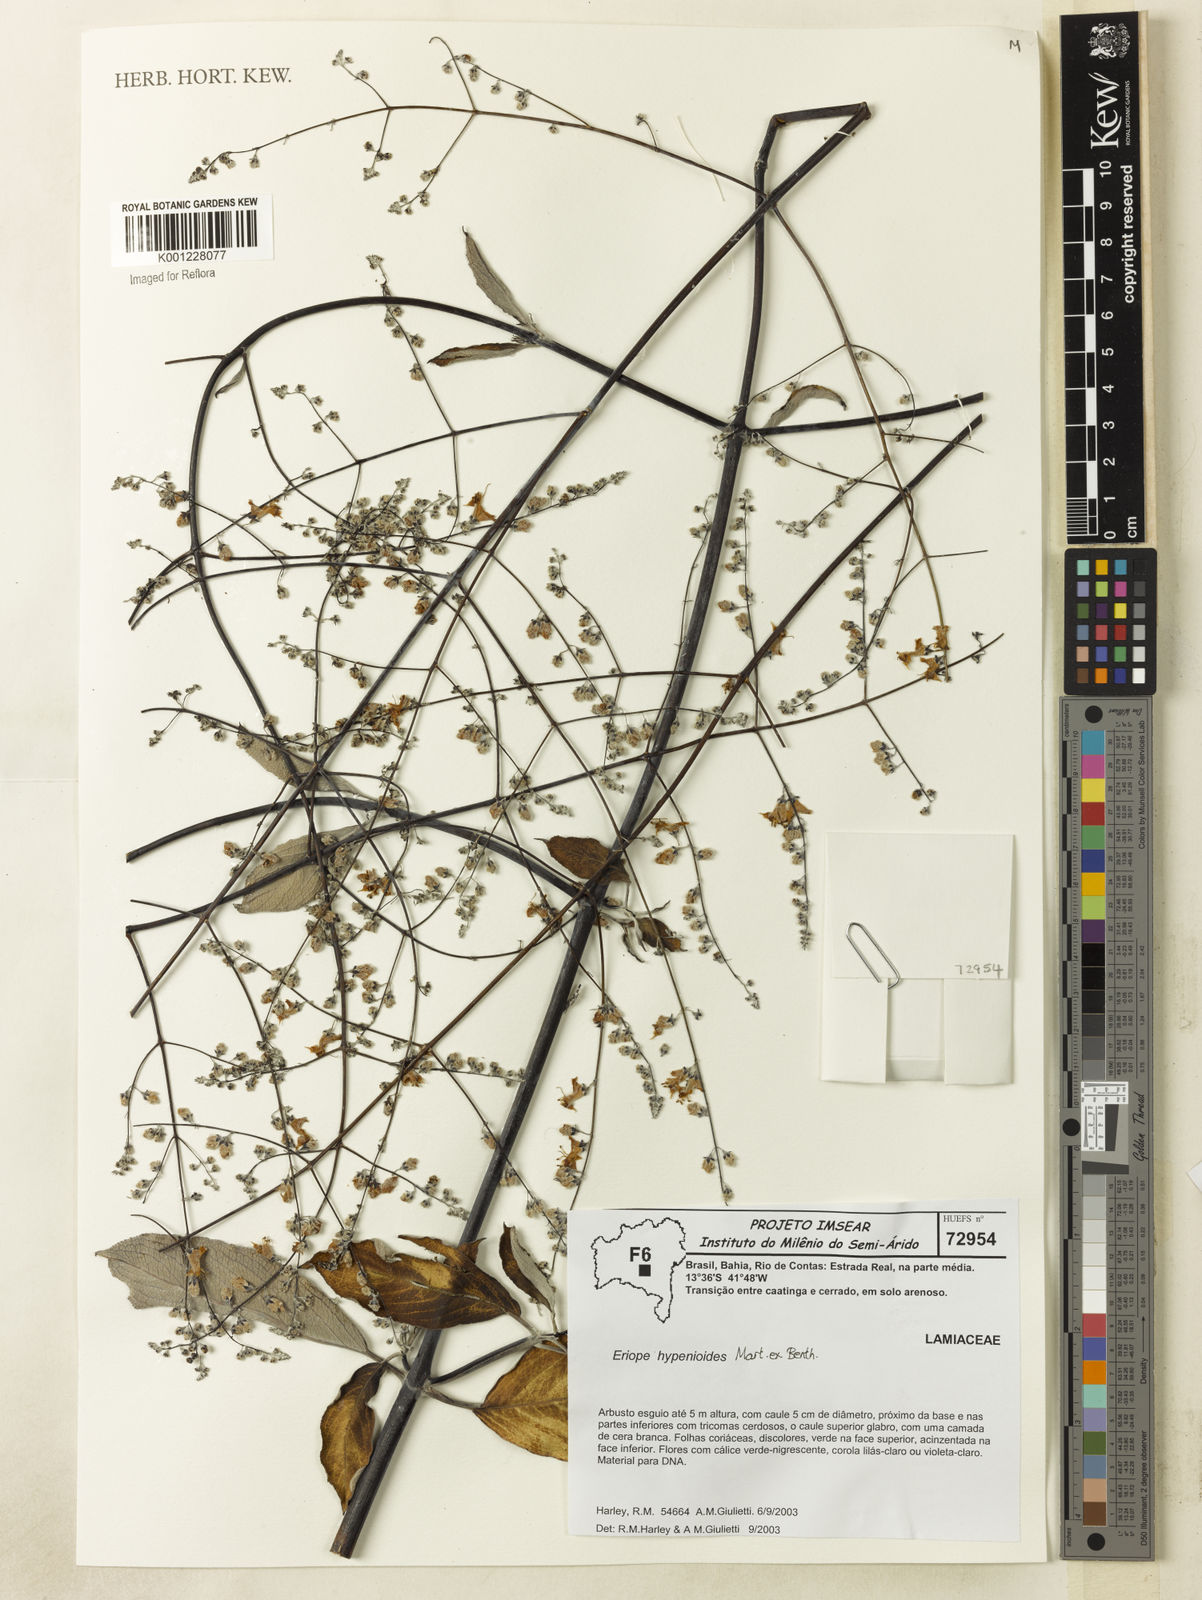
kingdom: Plantae
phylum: Tracheophyta
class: Magnoliopsida
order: Lamiales
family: Lamiaceae
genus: Eriope
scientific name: Eriope hypenioides
